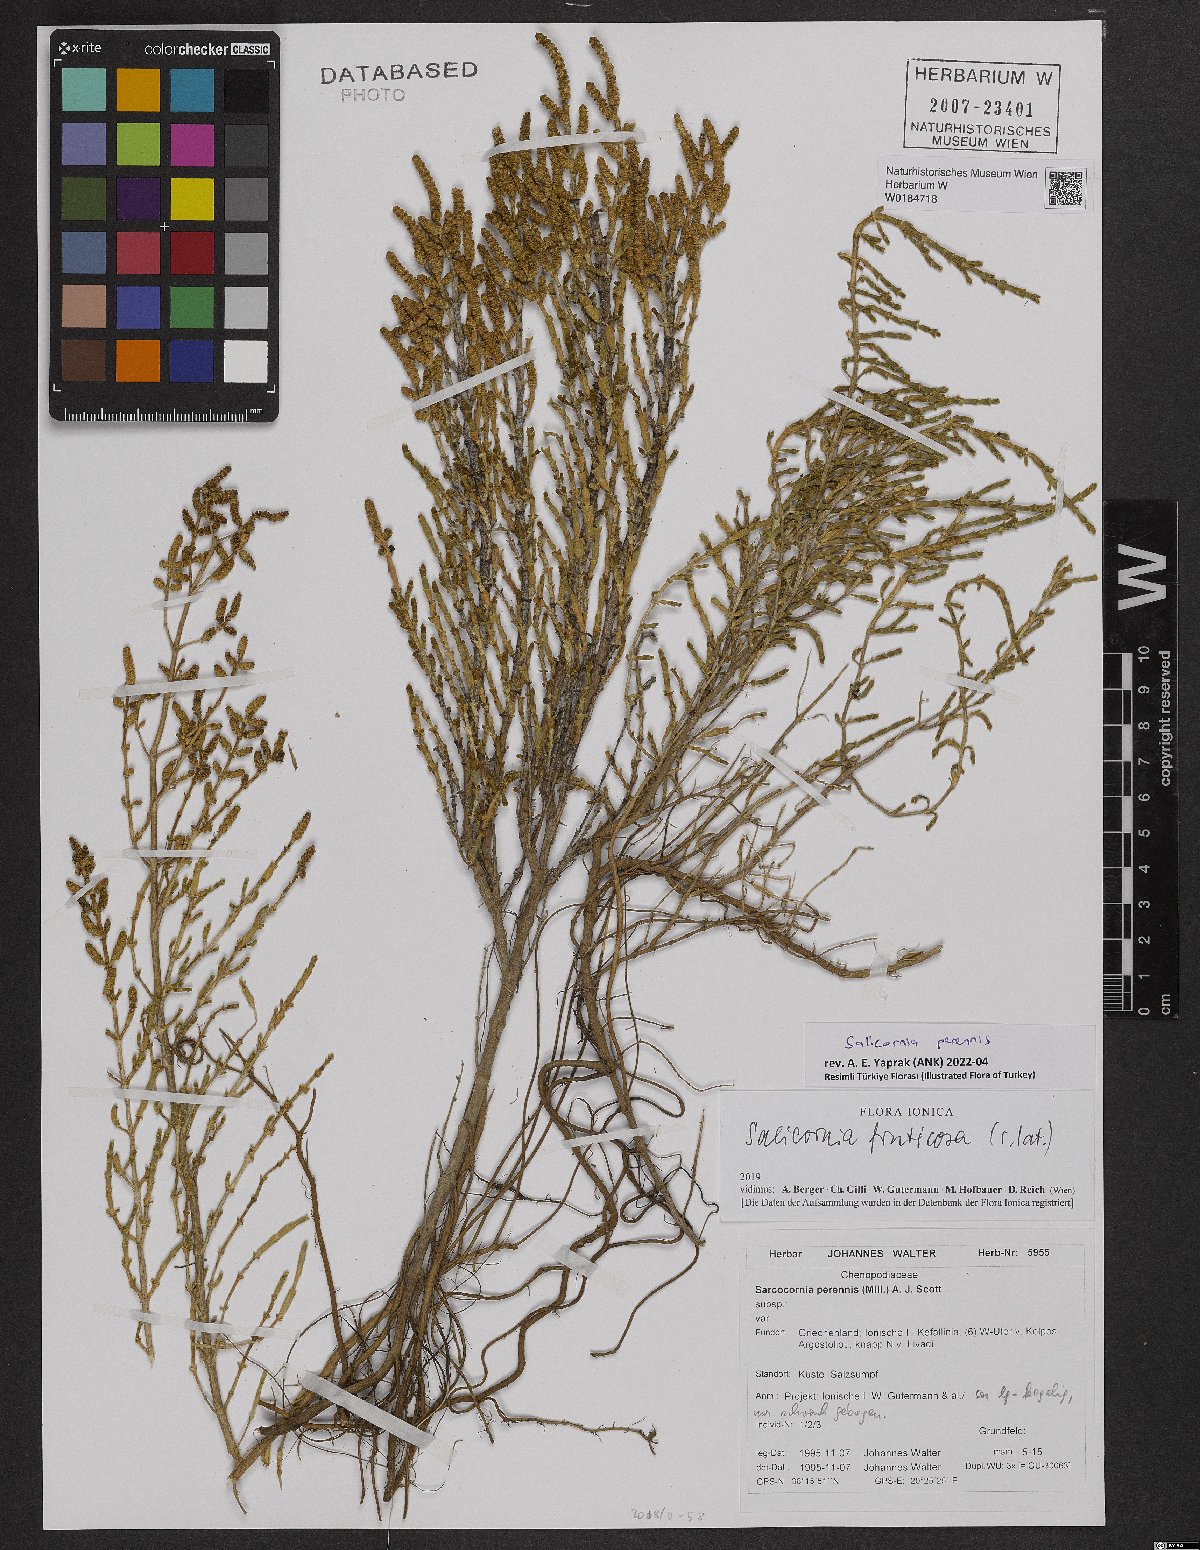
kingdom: Plantae
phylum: Tracheophyta
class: Magnoliopsida
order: Caryophyllales
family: Amaranthaceae
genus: Salicornia
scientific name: Salicornia perennis
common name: Chicken claws
